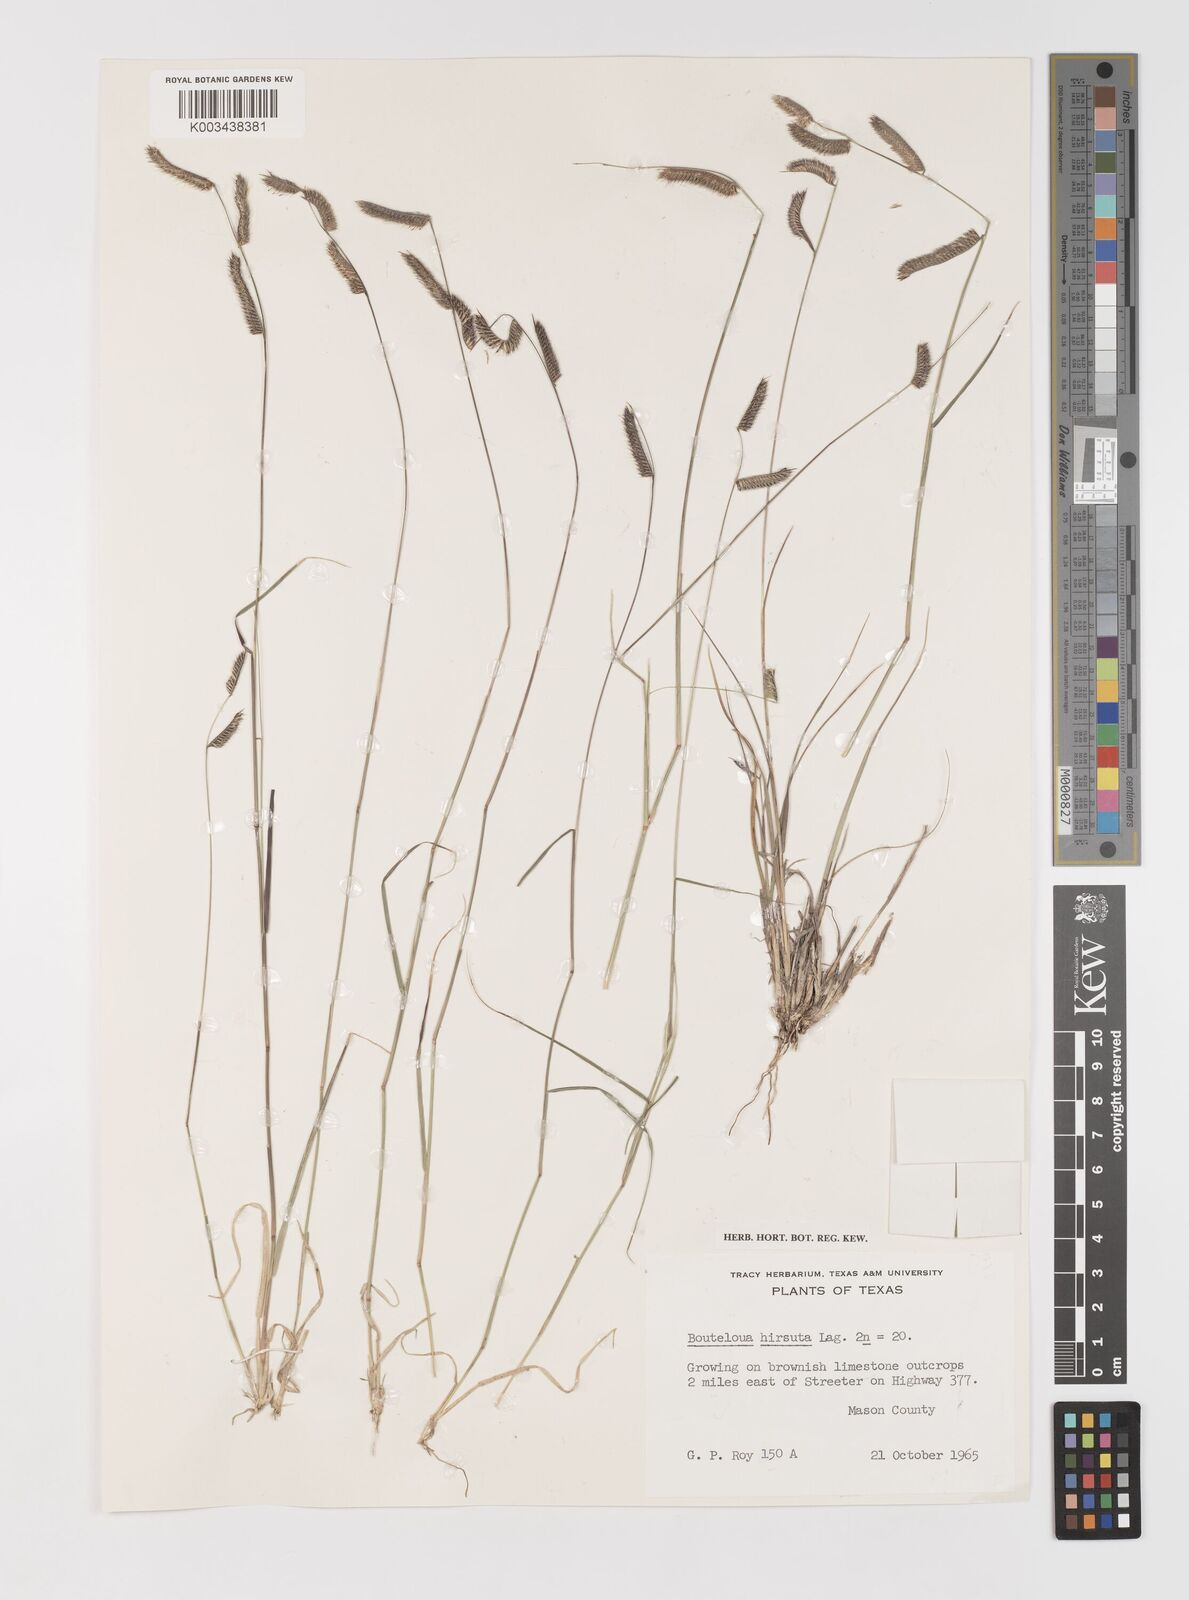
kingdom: Plantae
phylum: Tracheophyta
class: Liliopsida
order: Poales
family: Poaceae
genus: Bouteloua
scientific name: Bouteloua hirsuta
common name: Hairy grama
